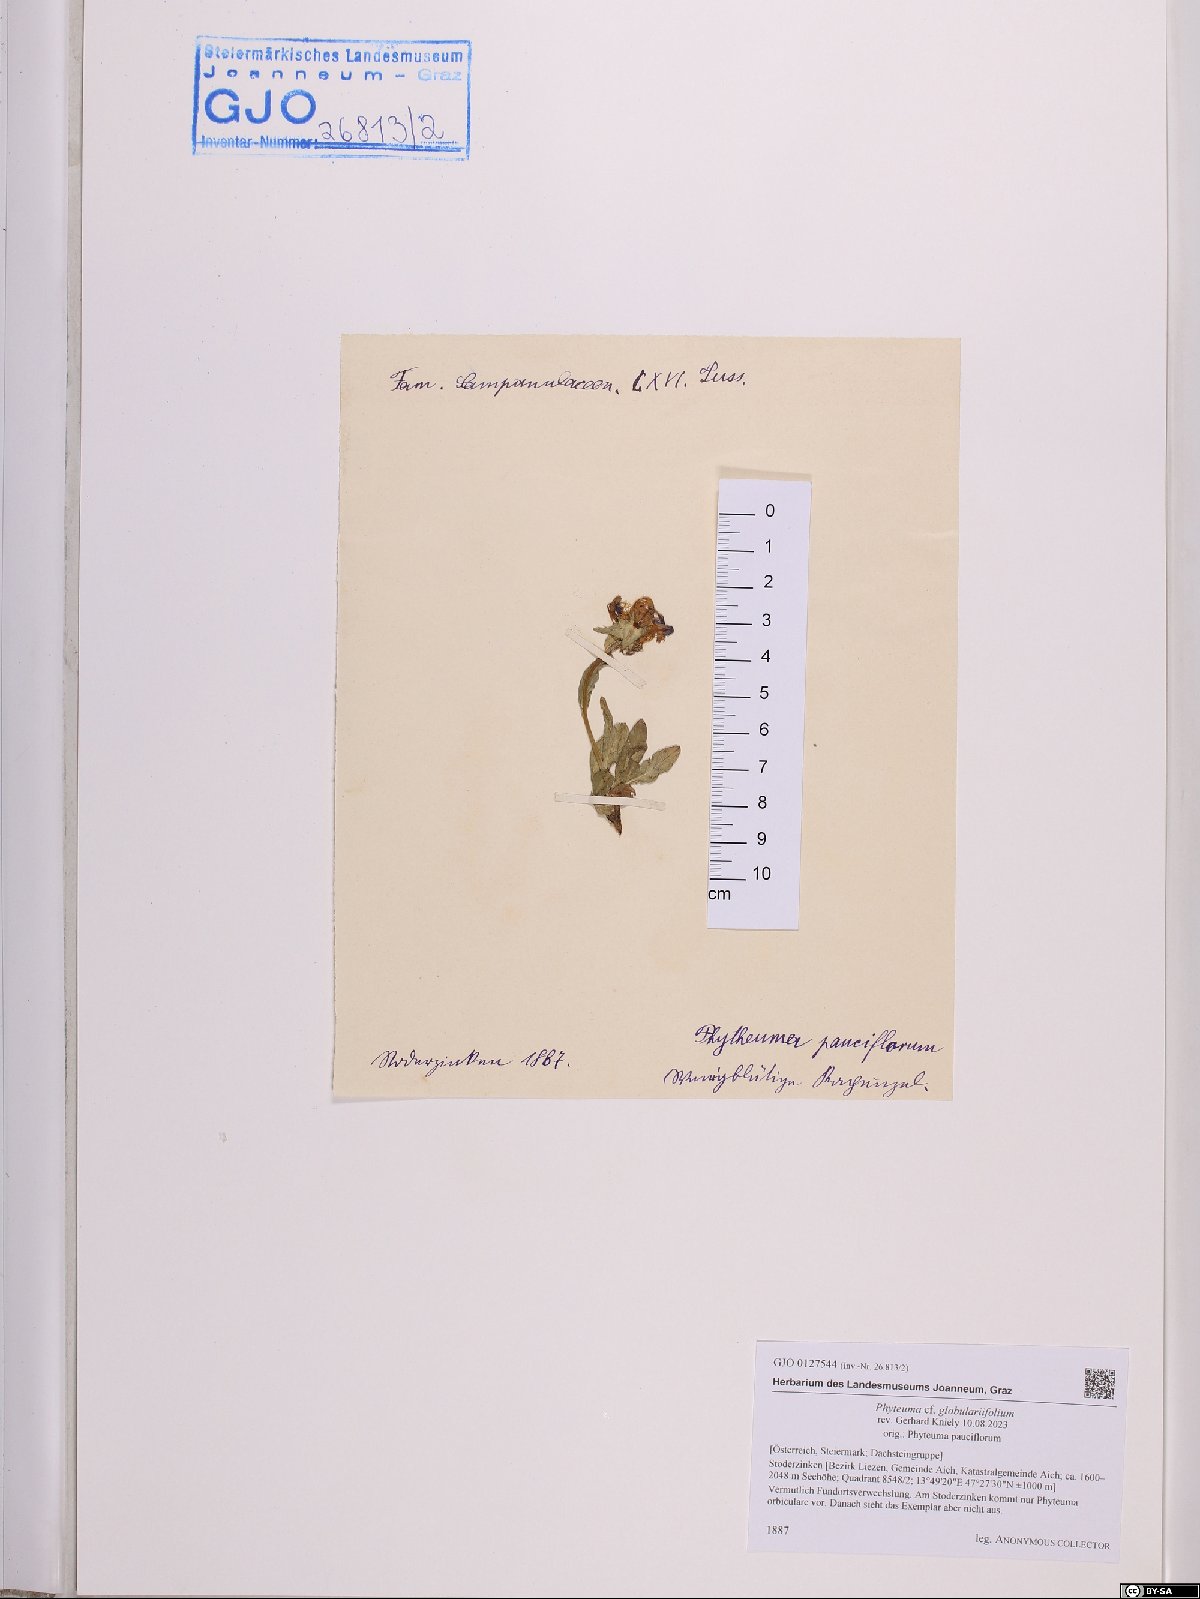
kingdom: Plantae
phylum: Tracheophyta
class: Magnoliopsida
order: Asterales
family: Campanulaceae
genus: Phyteuma
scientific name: Phyteuma globulariifolium
